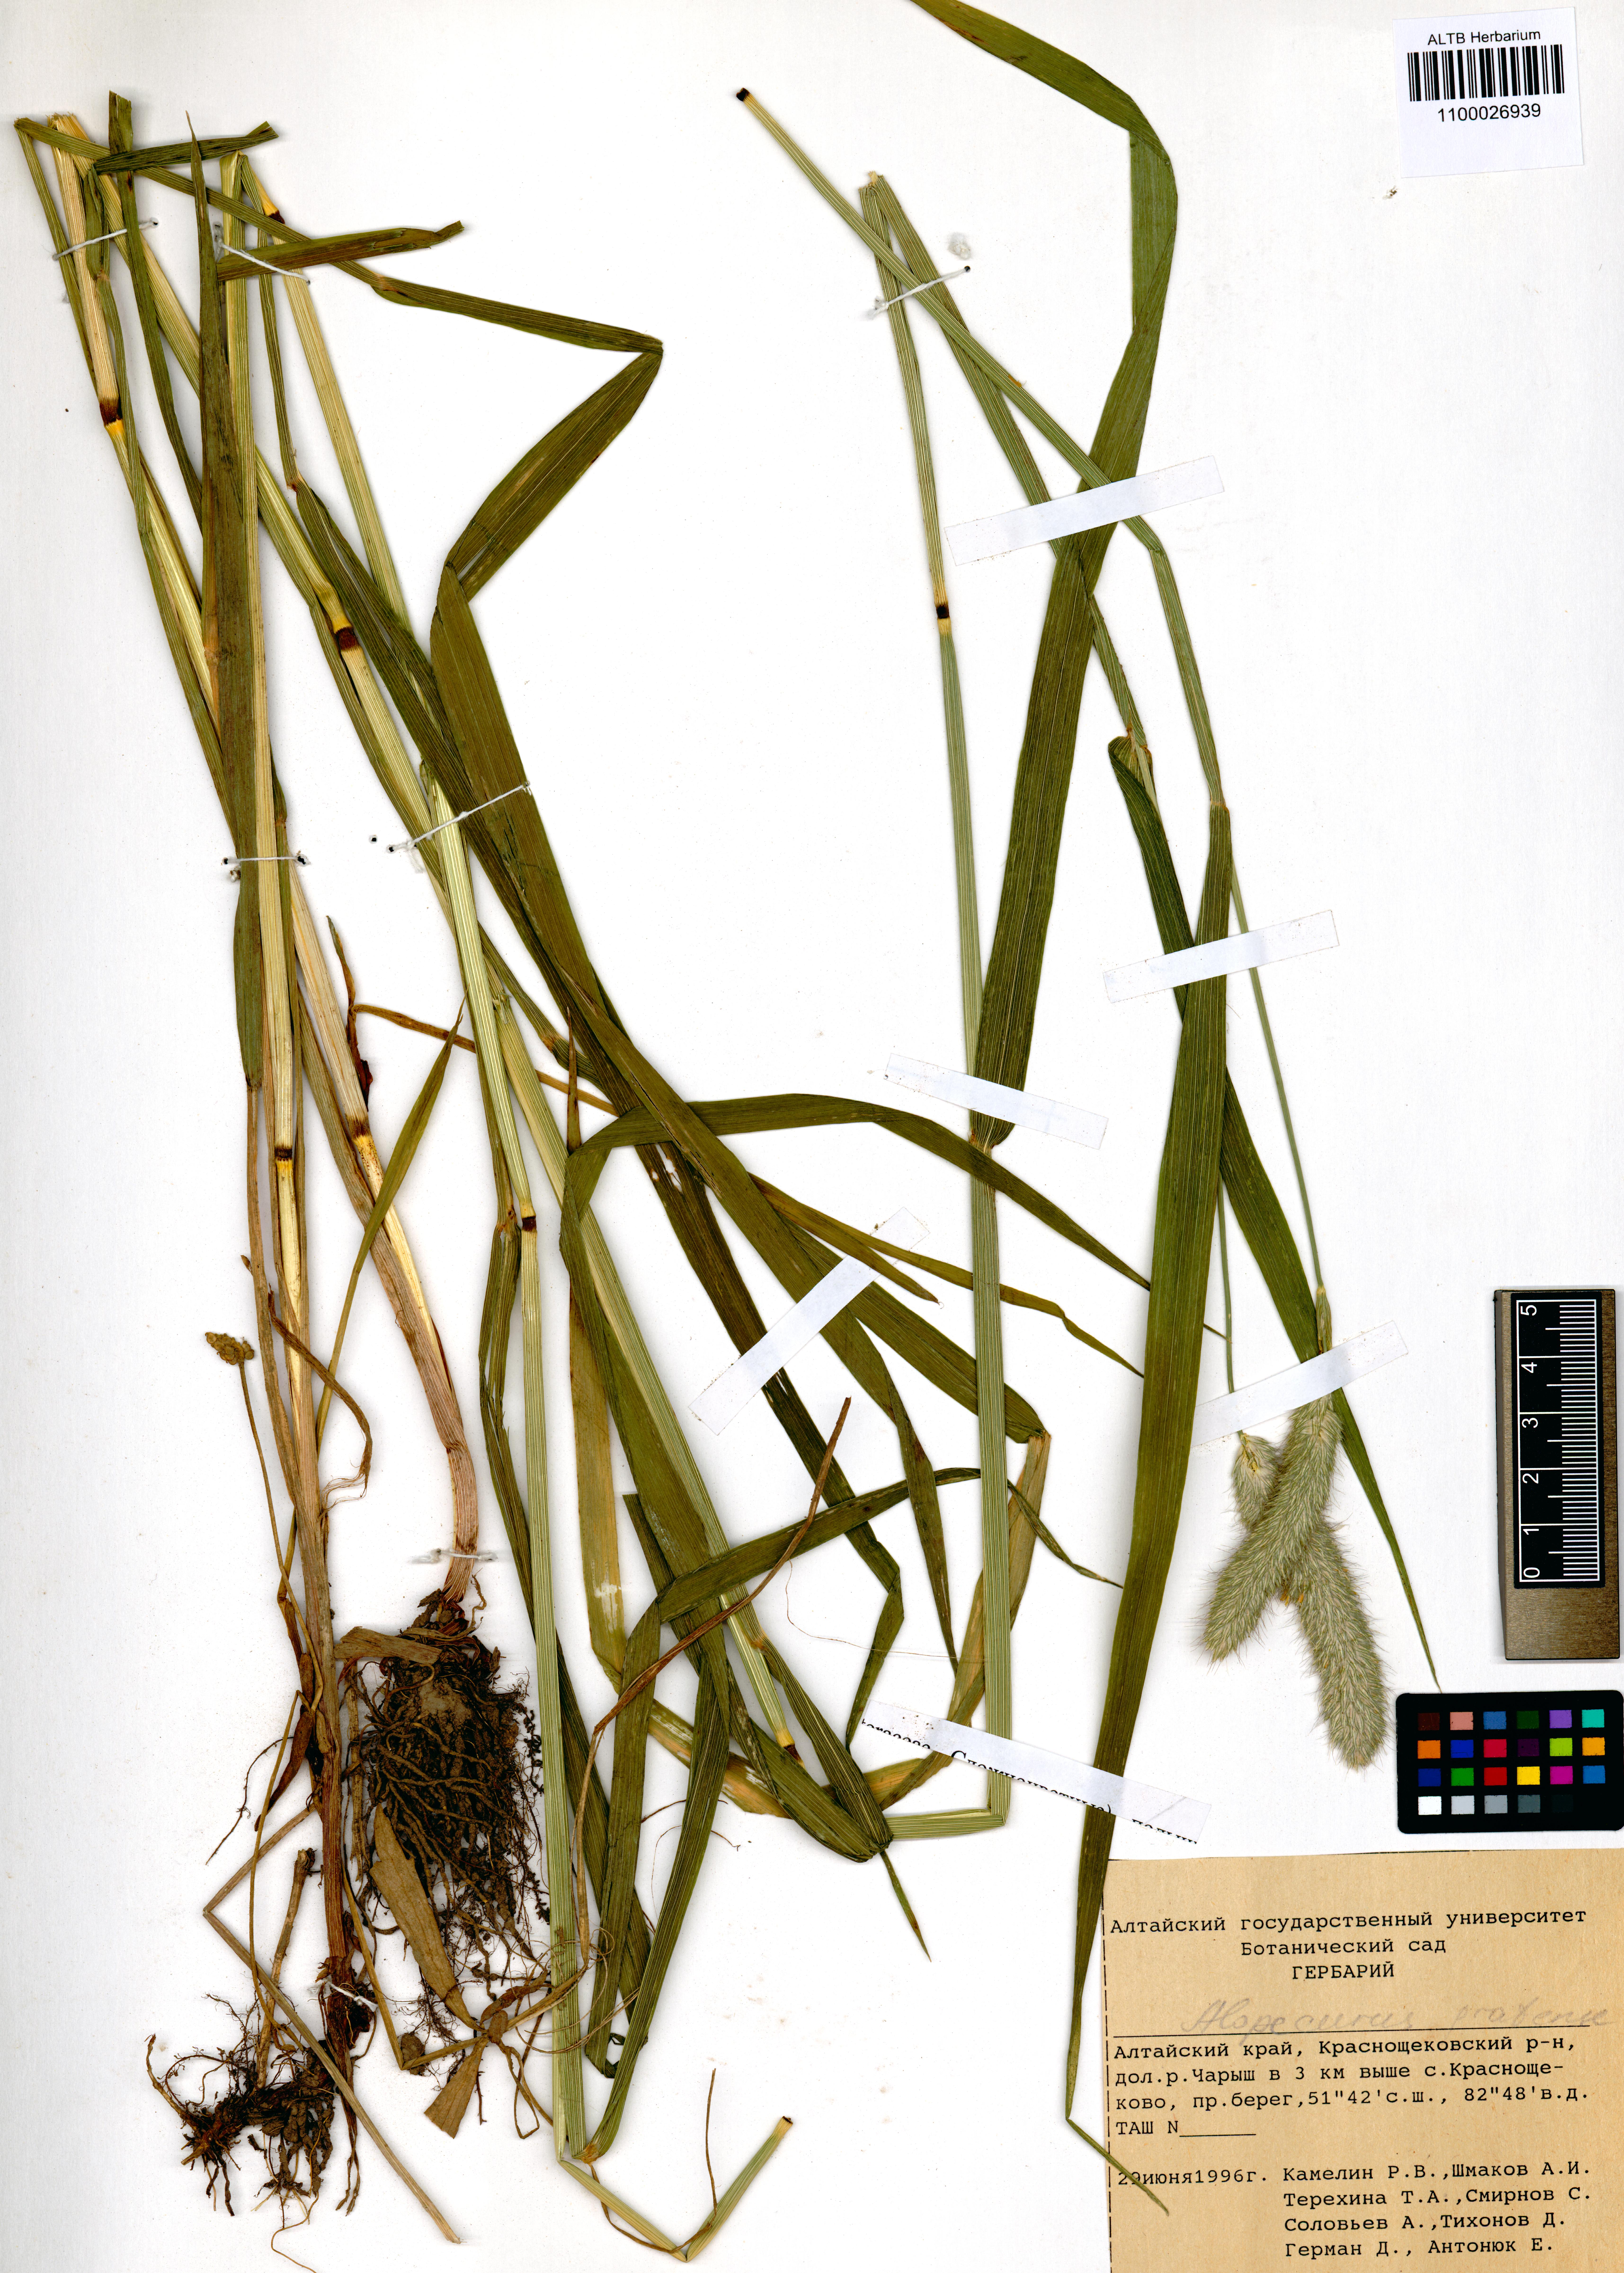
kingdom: Plantae
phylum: Tracheophyta
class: Liliopsida
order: Poales
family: Poaceae
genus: Alopecurus
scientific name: Alopecurus pratensis
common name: Meadow foxtail
